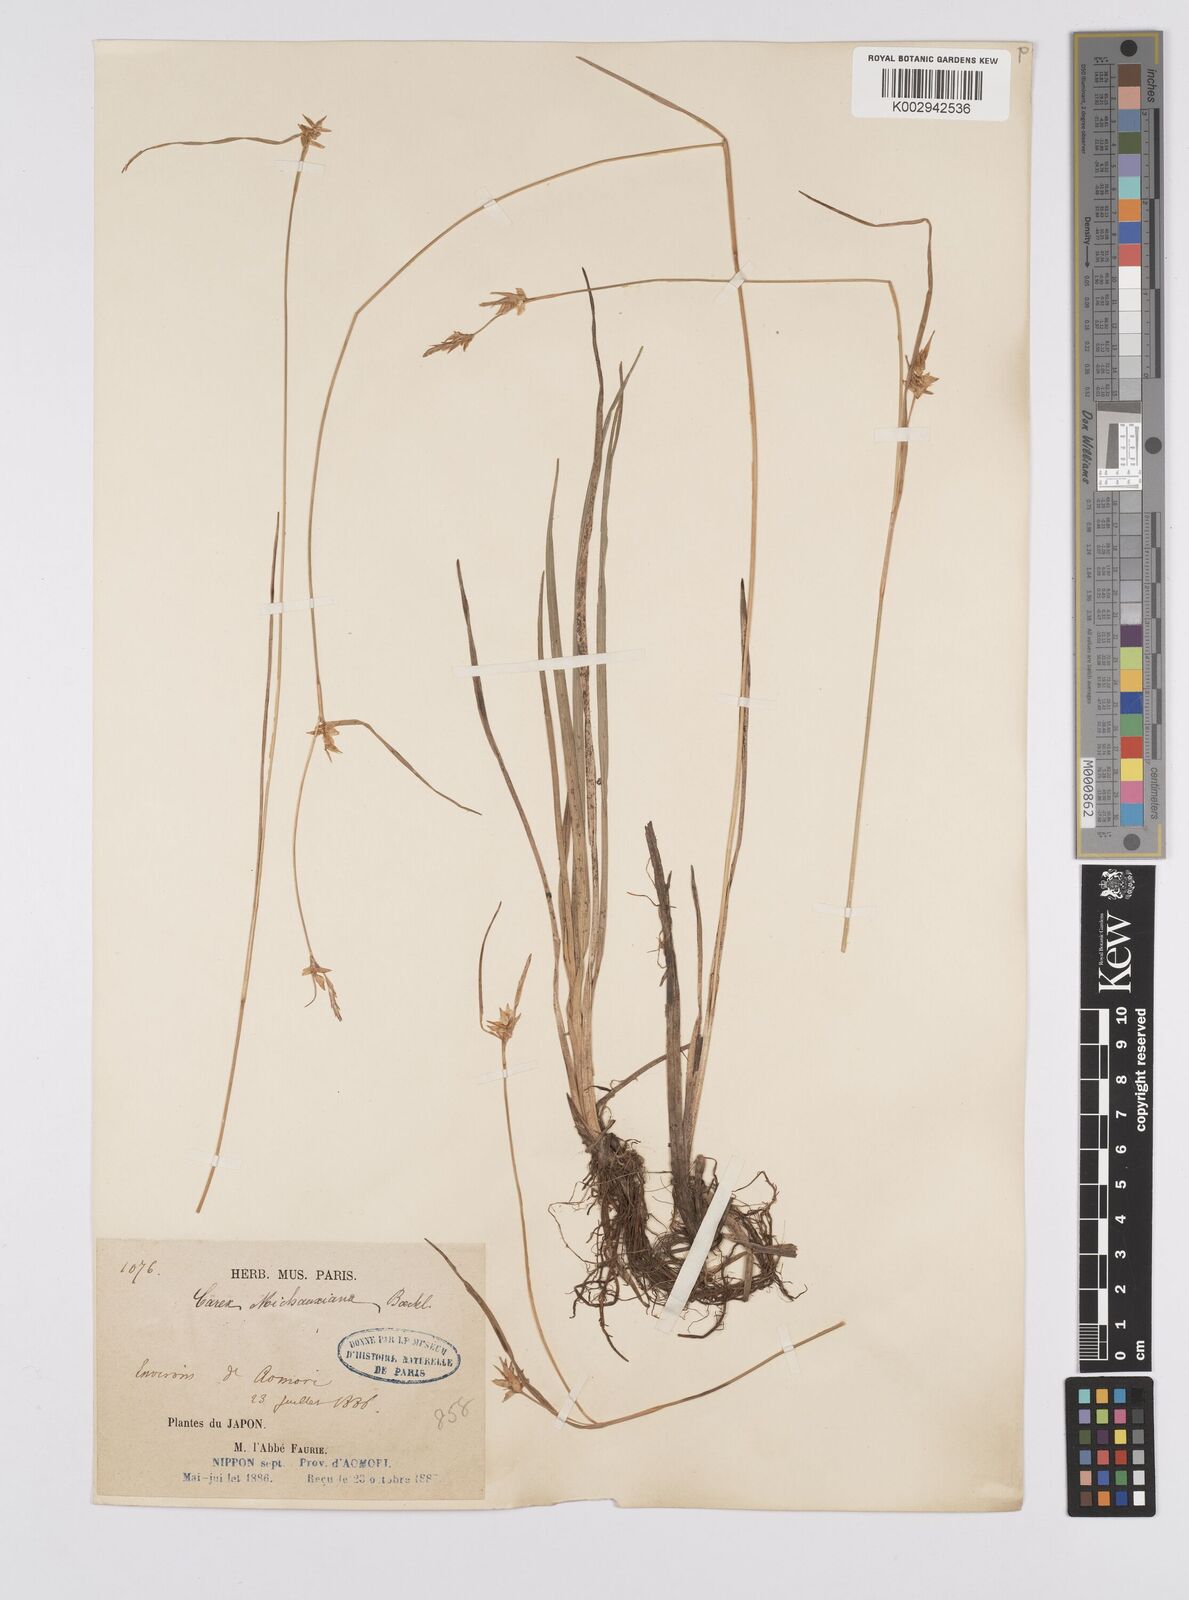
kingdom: Plantae
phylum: Tracheophyta
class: Liliopsida
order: Poales
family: Cyperaceae
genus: Carex
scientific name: Carex michauxiana
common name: Michaux's sedge
